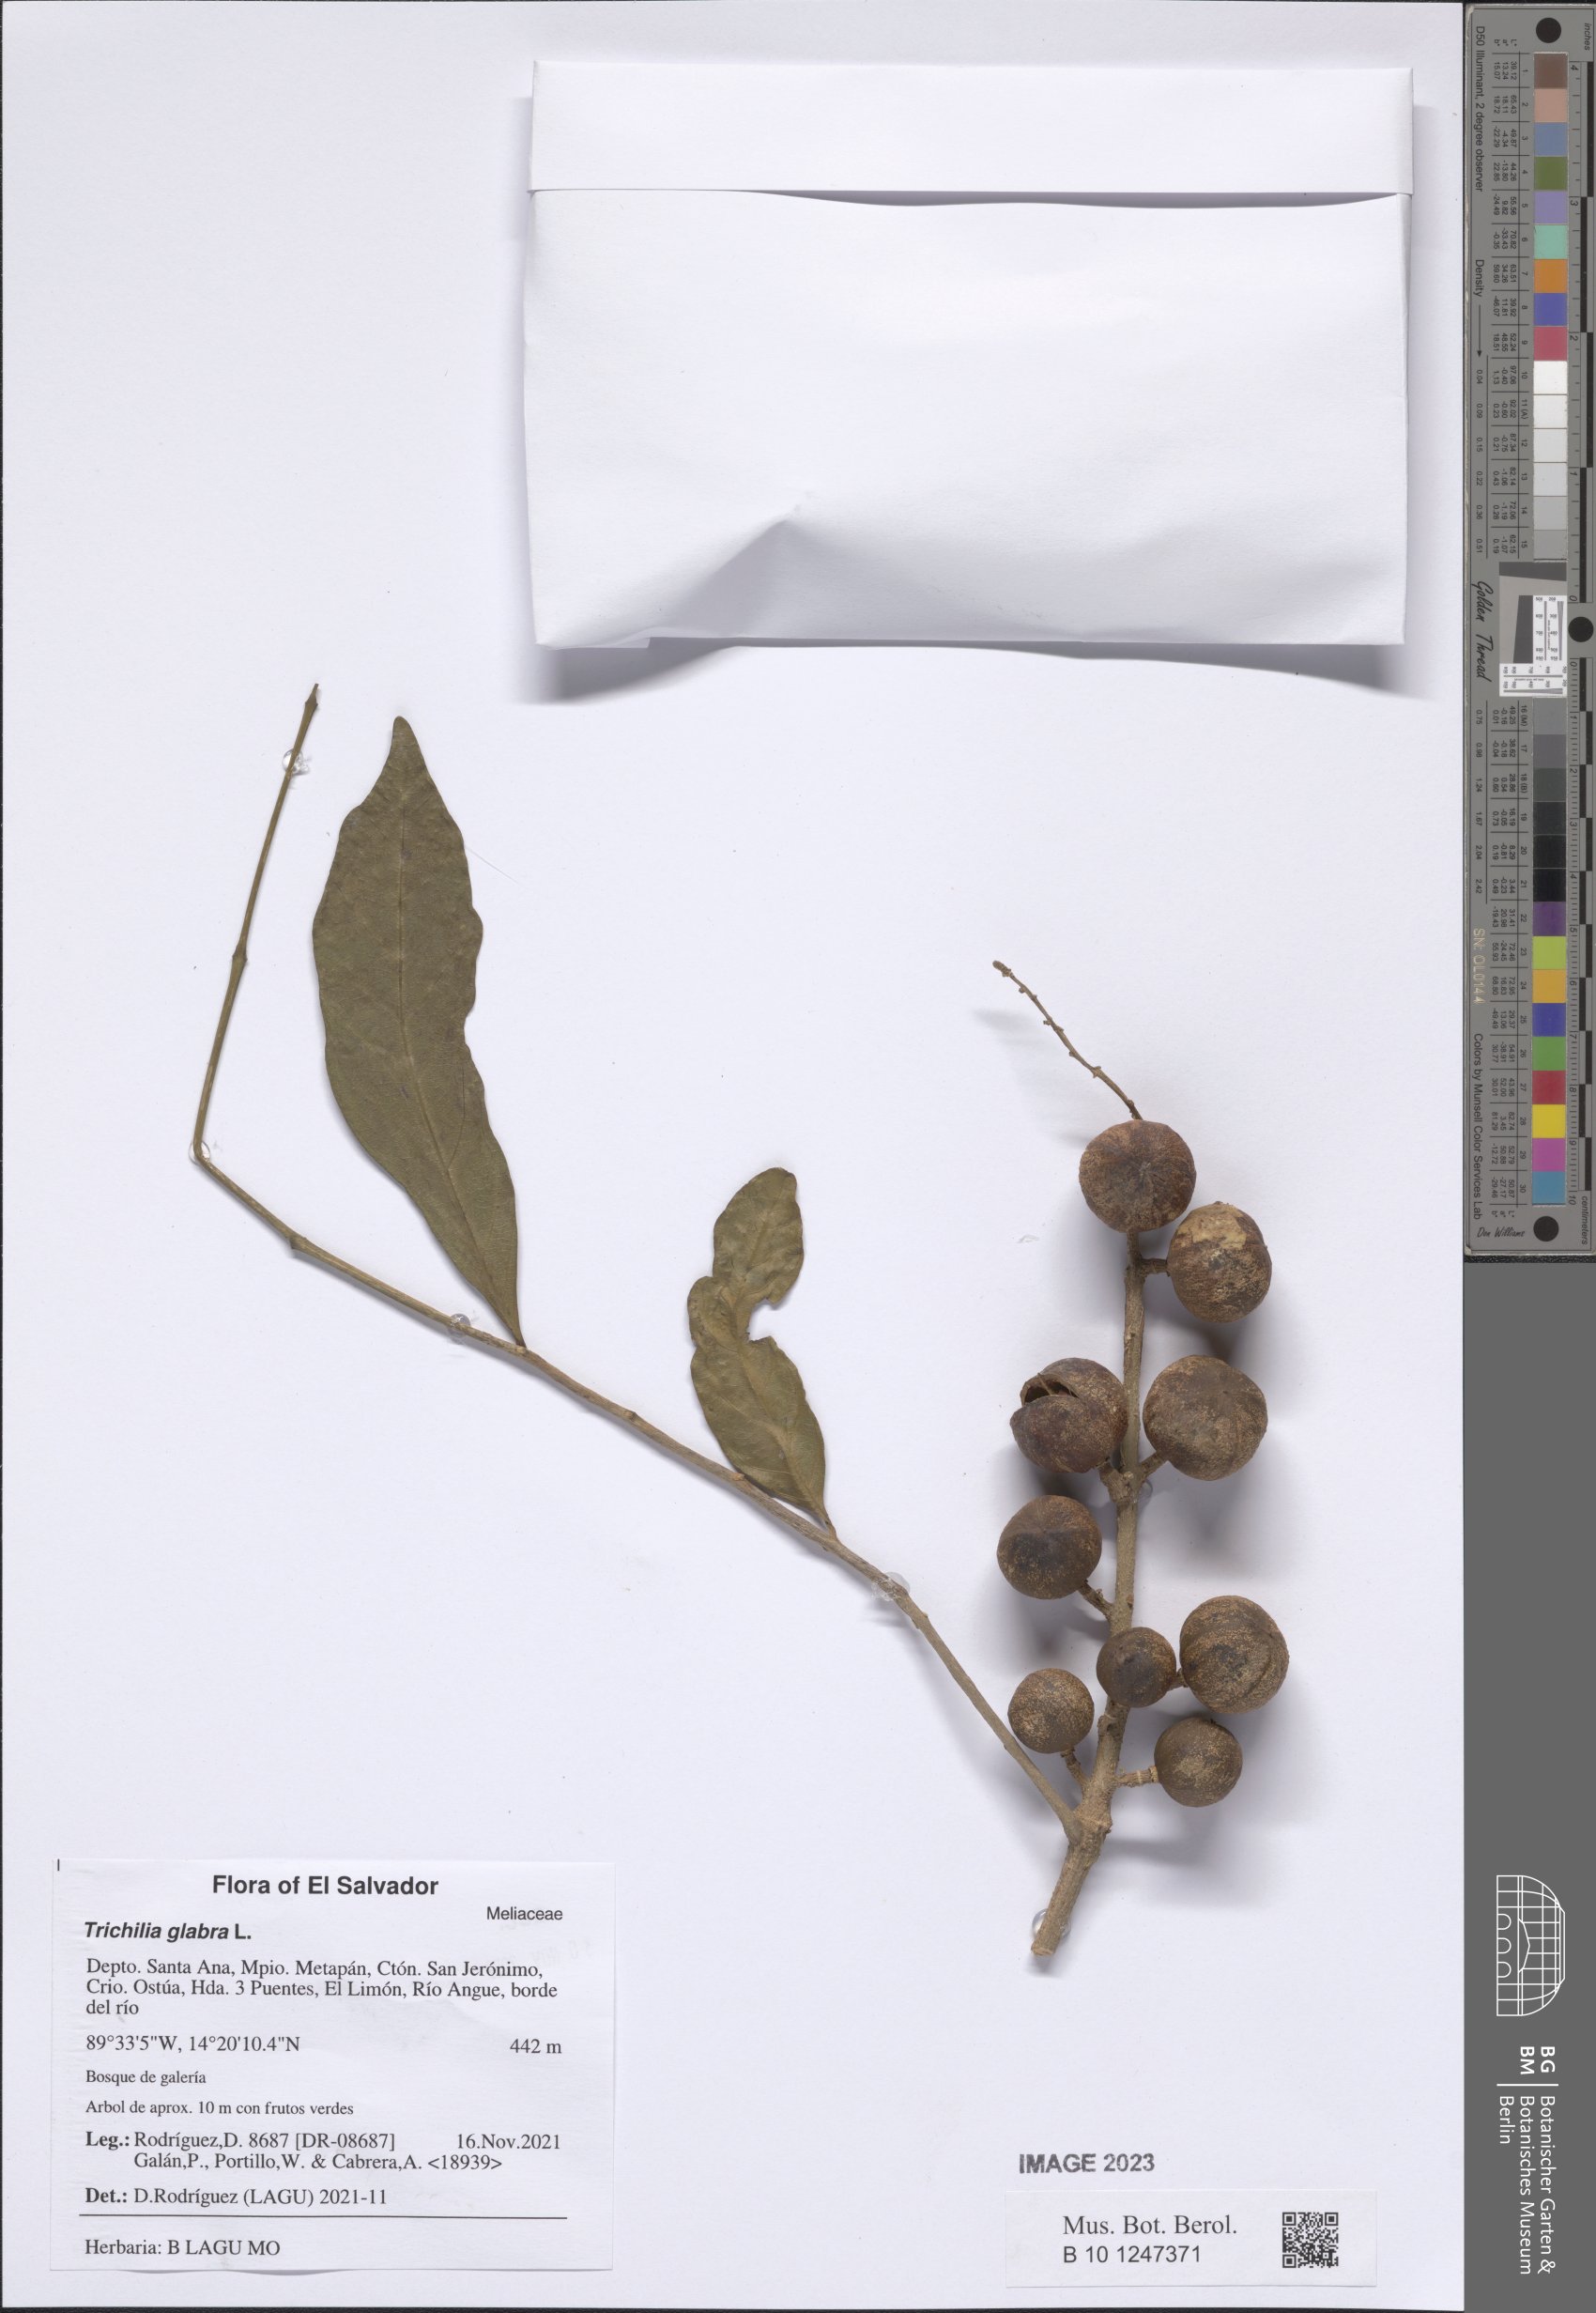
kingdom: Plantae
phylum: Tracheophyta
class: Magnoliopsida
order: Sapindales
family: Meliaceae
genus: Trichilia
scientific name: Trichilia glabra
